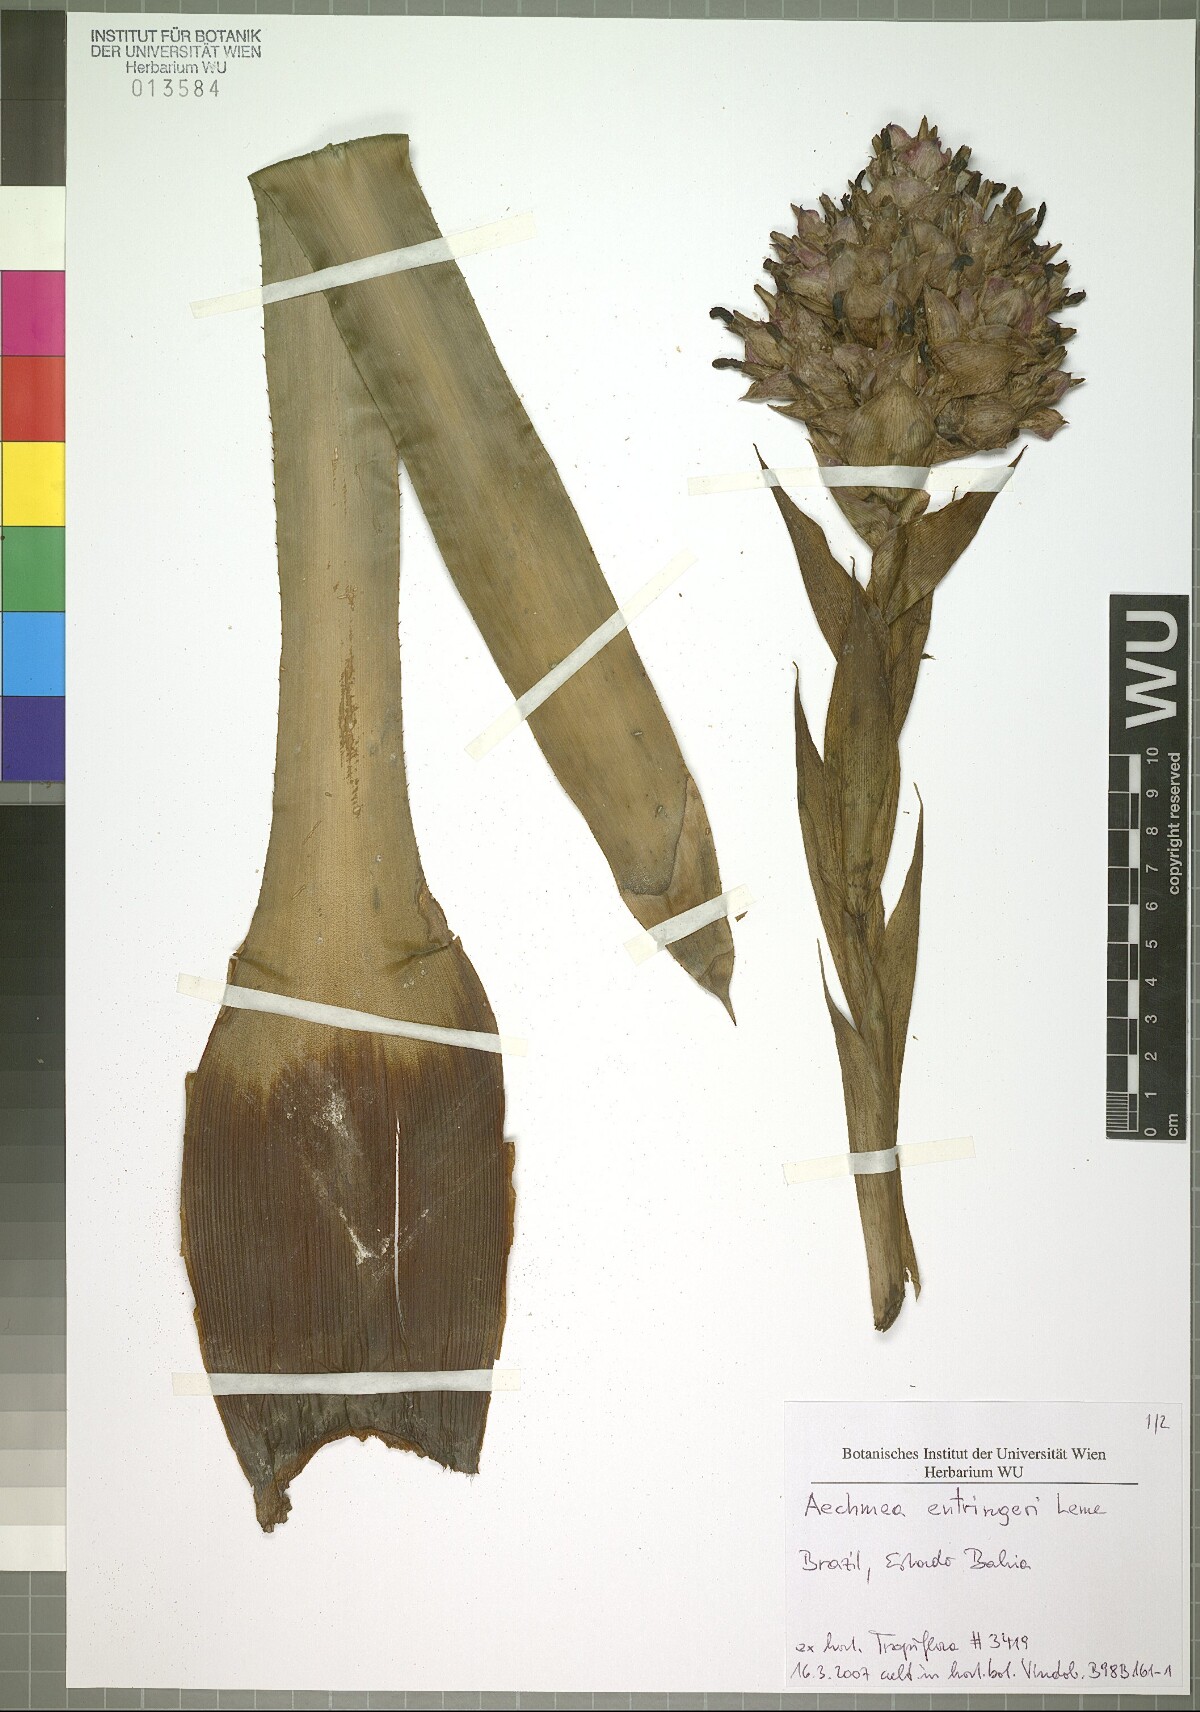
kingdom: Plantae
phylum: Tracheophyta
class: Liliopsida
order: Poales
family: Bromeliaceae
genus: Aechmea
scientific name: Aechmea entringeri
